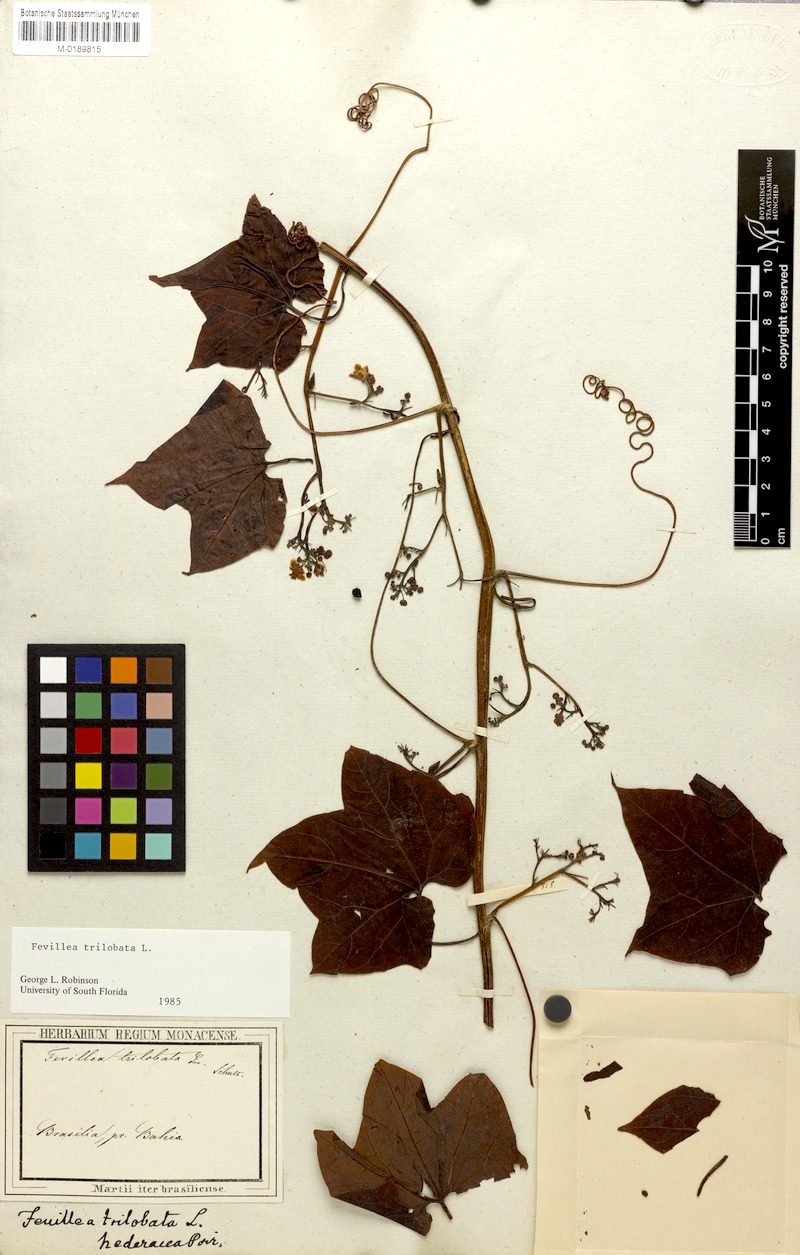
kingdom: Plantae
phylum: Tracheophyta
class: Magnoliopsida
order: Cucurbitales
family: Cucurbitaceae
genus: Fevillea
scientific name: Fevillea trilobata
